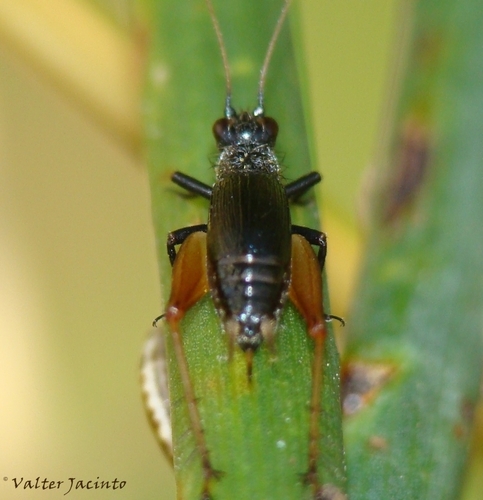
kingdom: Animalia
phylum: Arthropoda
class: Insecta
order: Orthoptera
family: Trigonidiidae
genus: Trigonidium
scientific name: Trigonidium cicindeloides
